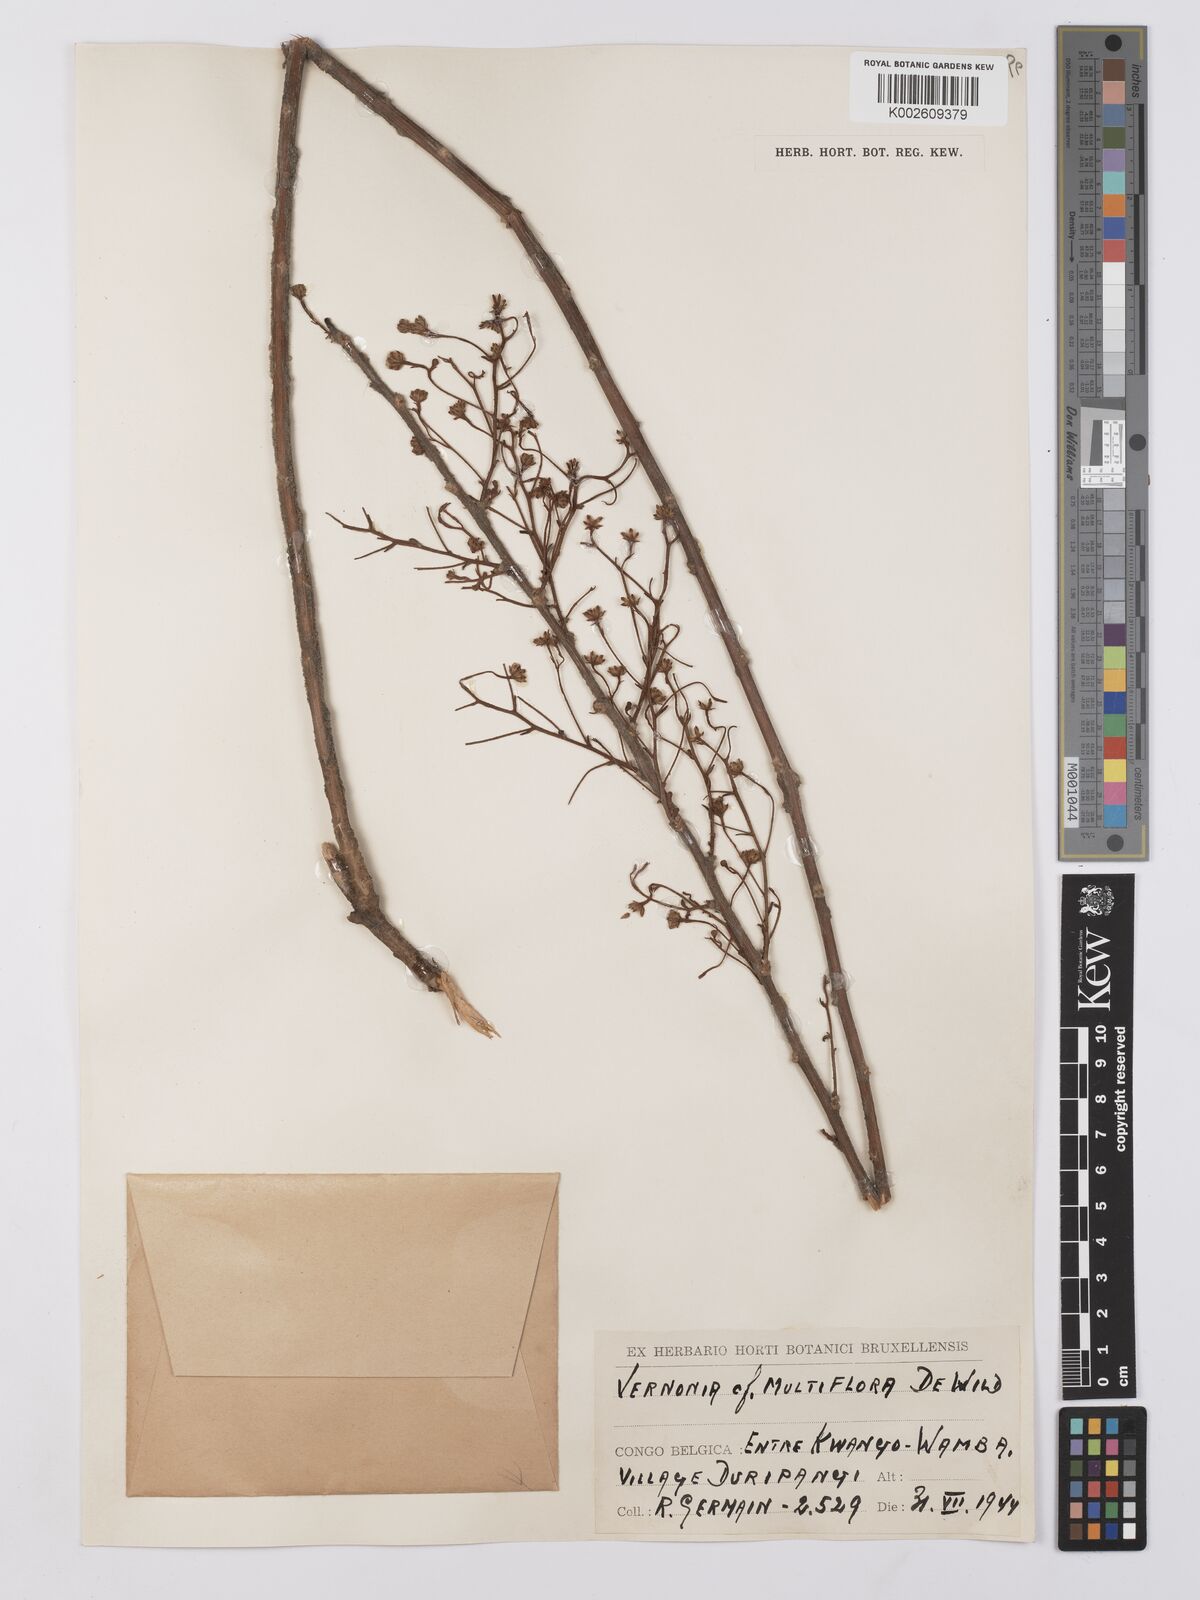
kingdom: Plantae
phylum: Tracheophyta
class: Magnoliopsida
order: Asterales
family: Asteraceae
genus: Vernonia
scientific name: Vernonia suprafastigiata
